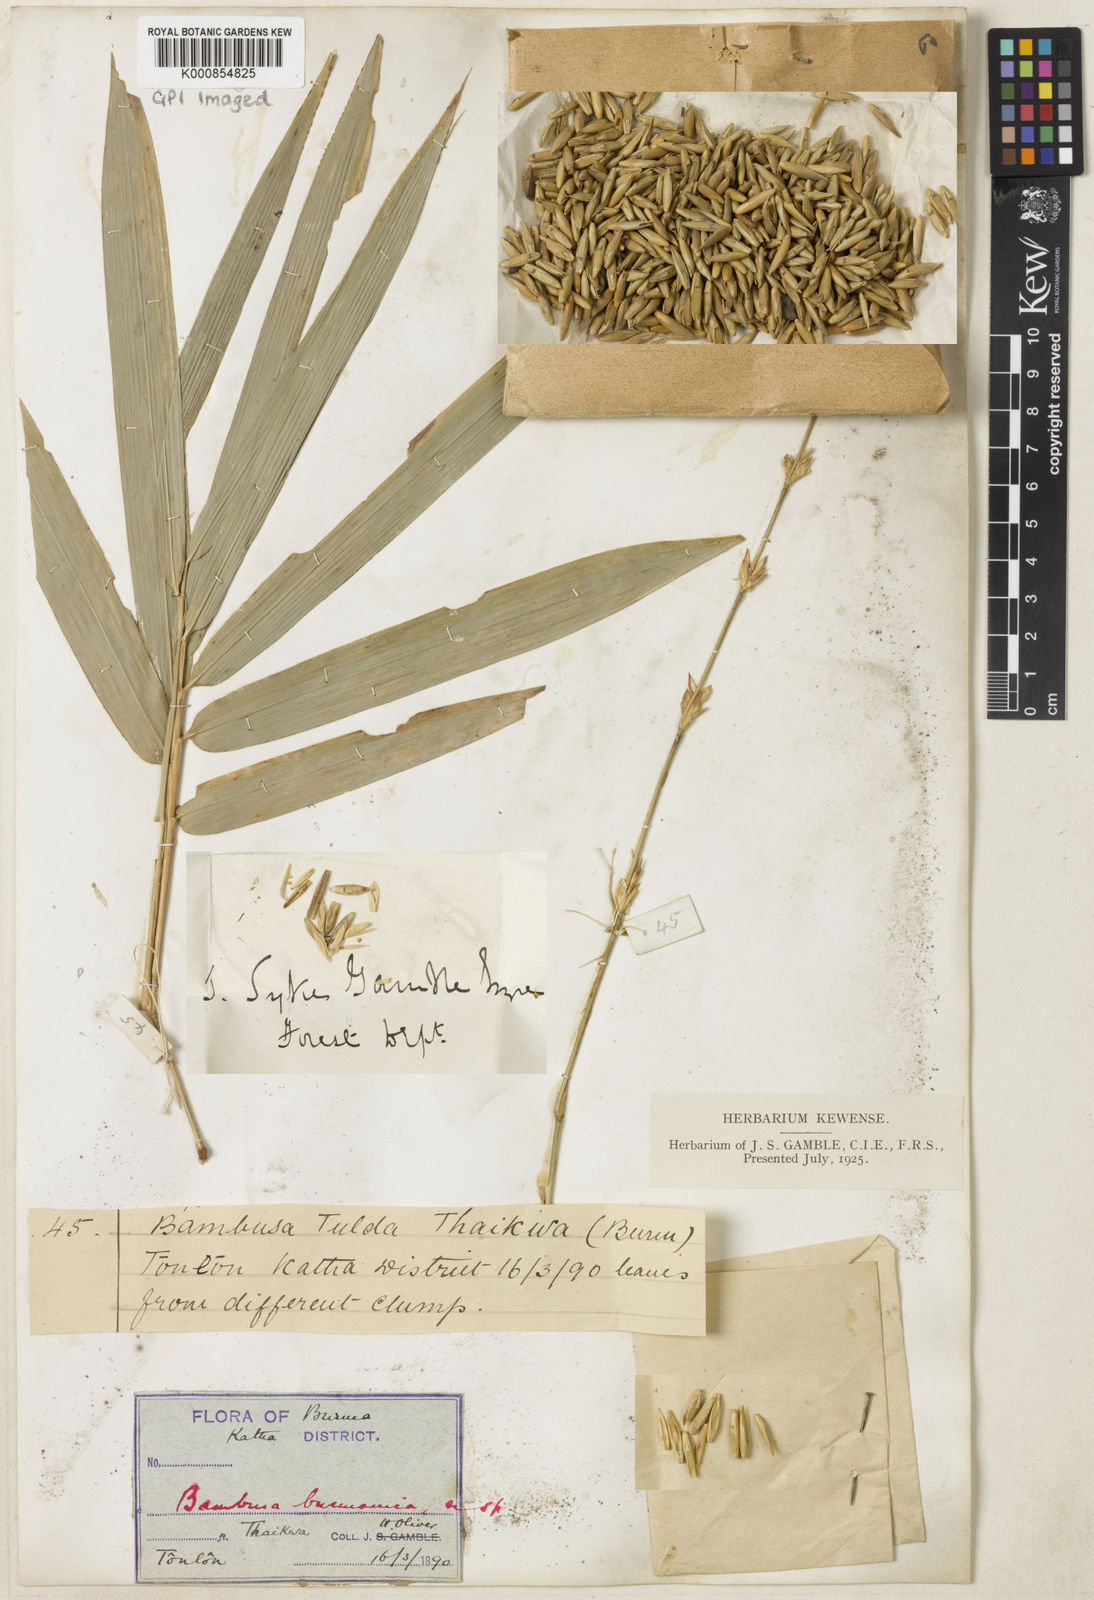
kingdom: Plantae
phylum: Tracheophyta
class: Liliopsida
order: Poales
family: Poaceae
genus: Bambusa
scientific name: Bambusa burmanica
